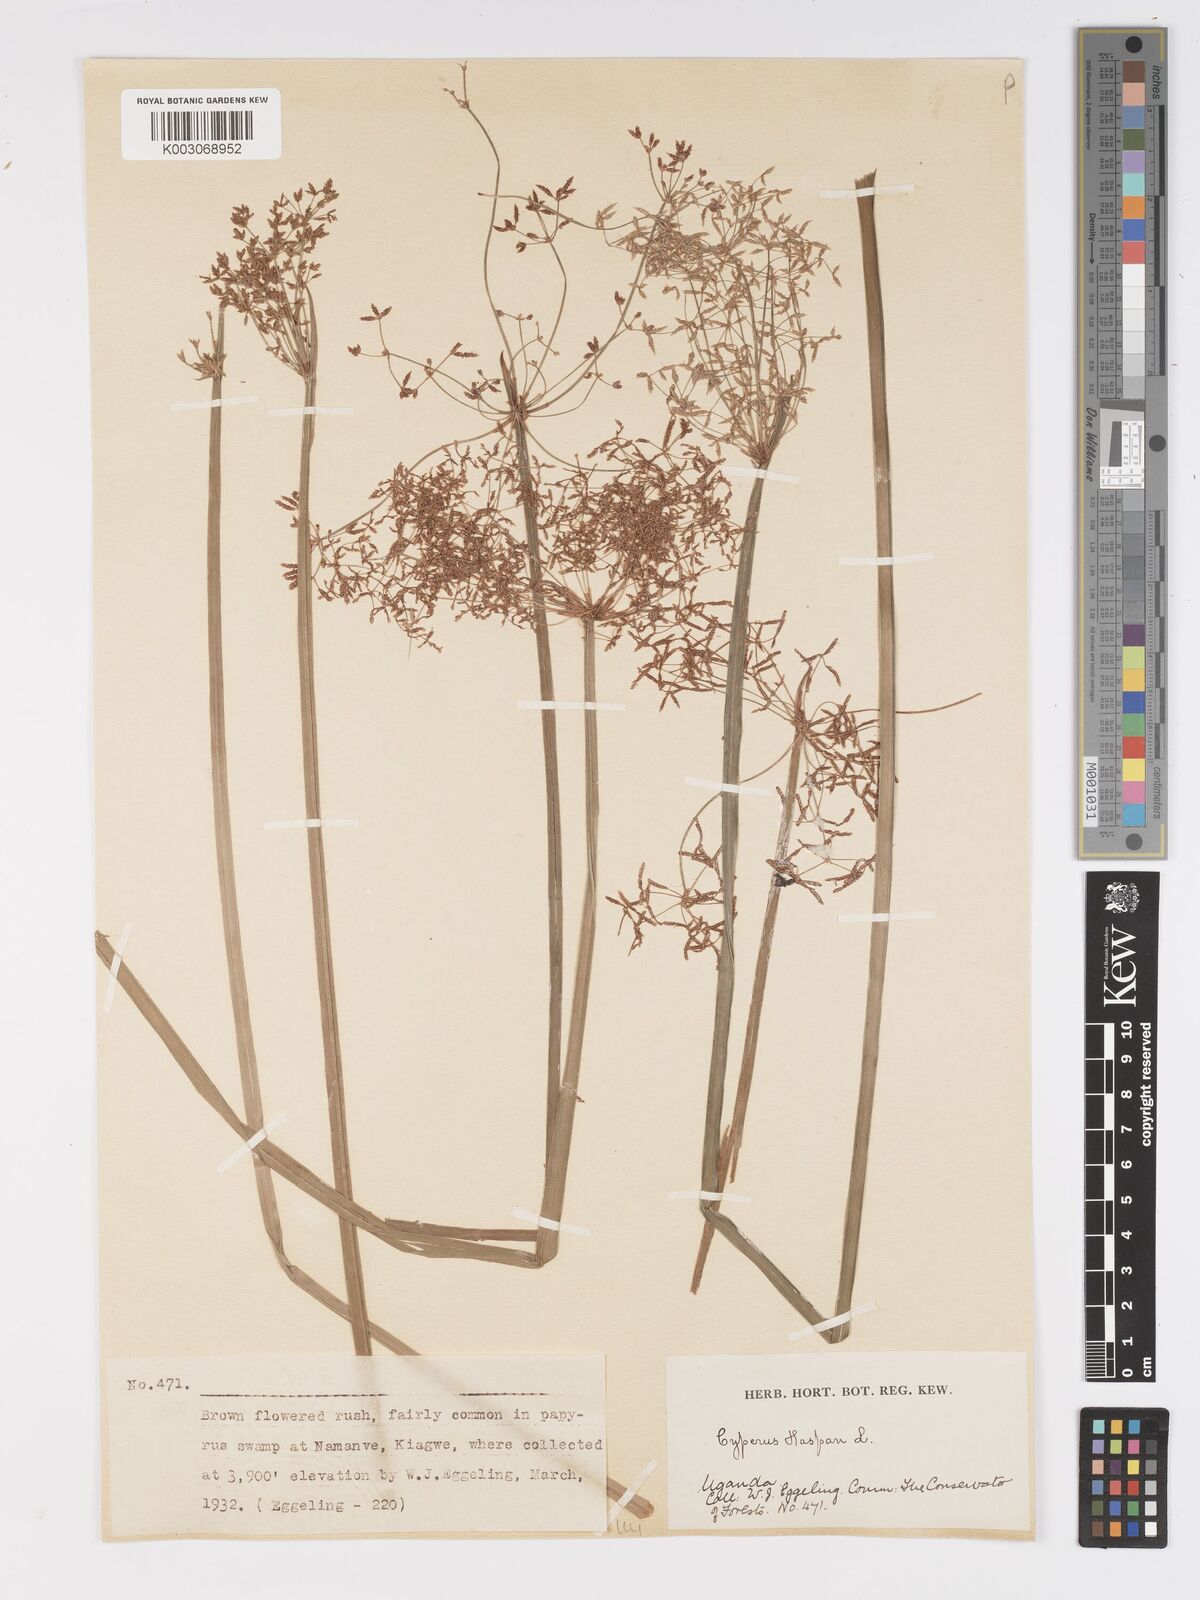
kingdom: Plantae
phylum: Tracheophyta
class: Liliopsida
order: Poales
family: Cyperaceae
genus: Cyperus
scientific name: Cyperus haspan
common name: Haspan flatsedge
